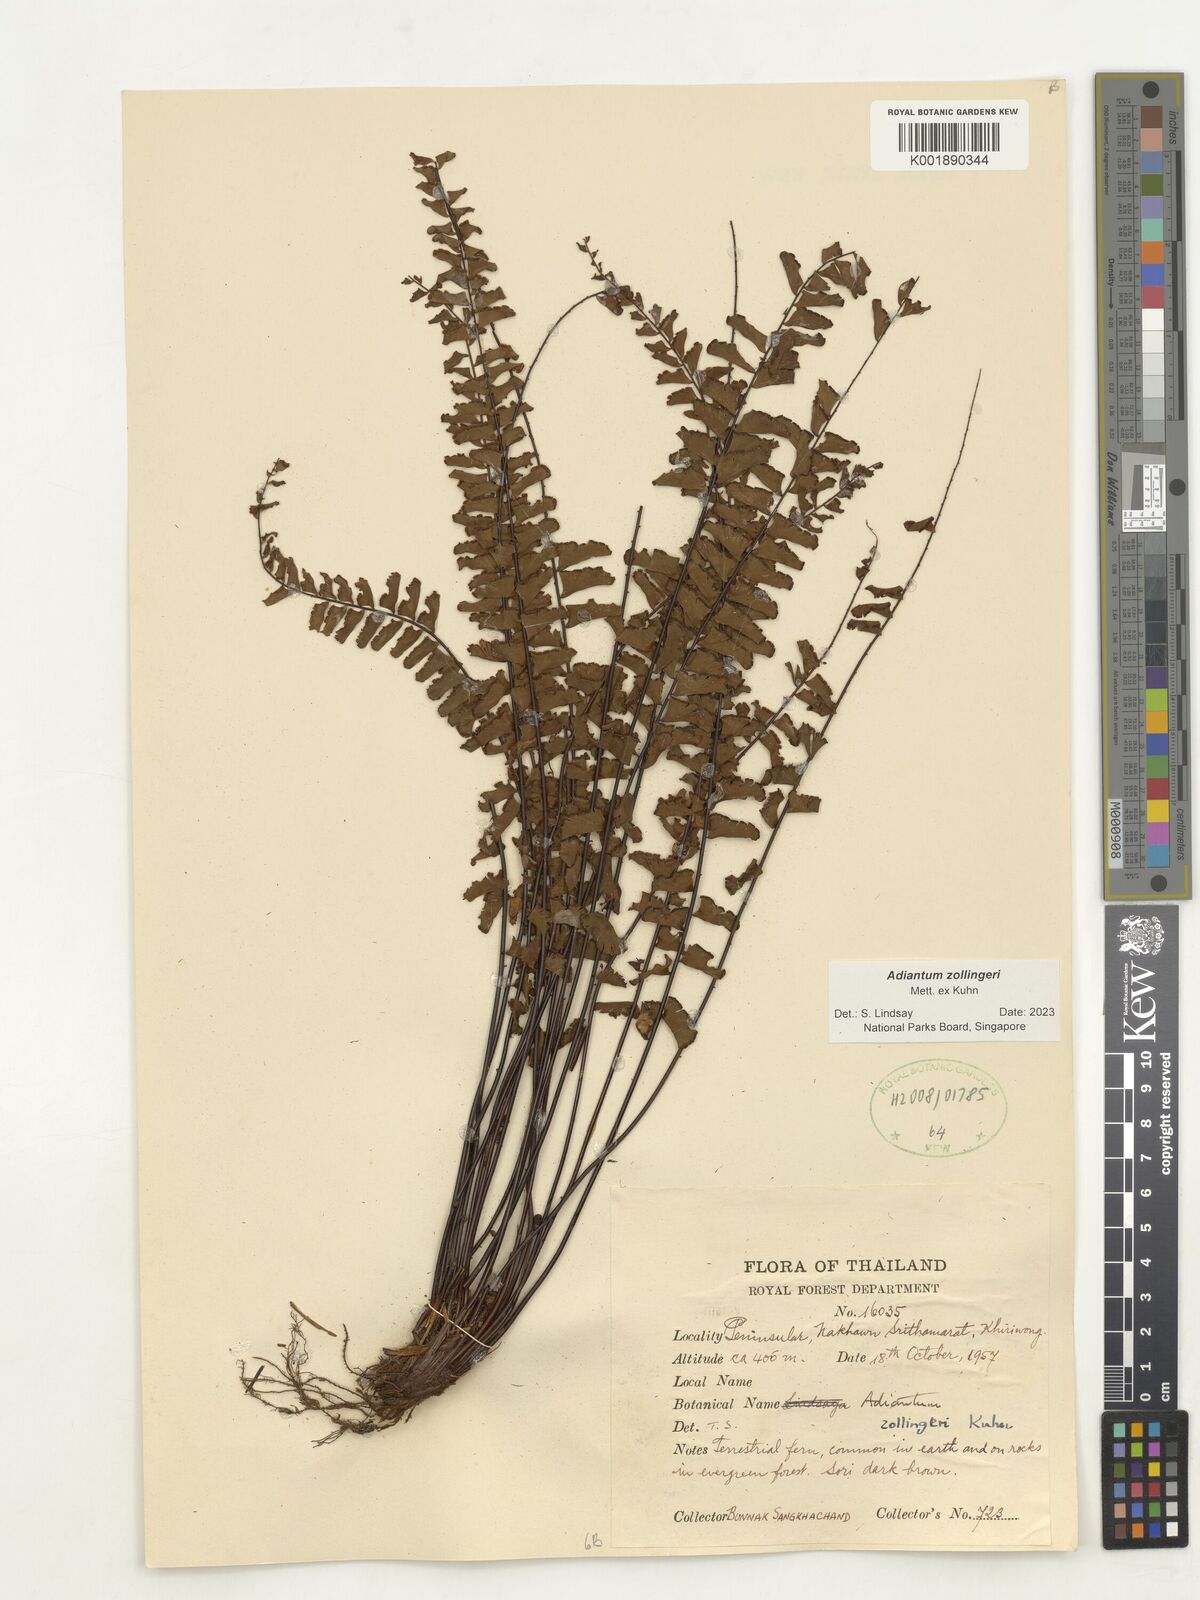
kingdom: Plantae
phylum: Tracheophyta
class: Polypodiopsida
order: Polypodiales
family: Pteridaceae
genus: Adiantum
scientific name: Adiantum zollingeri
